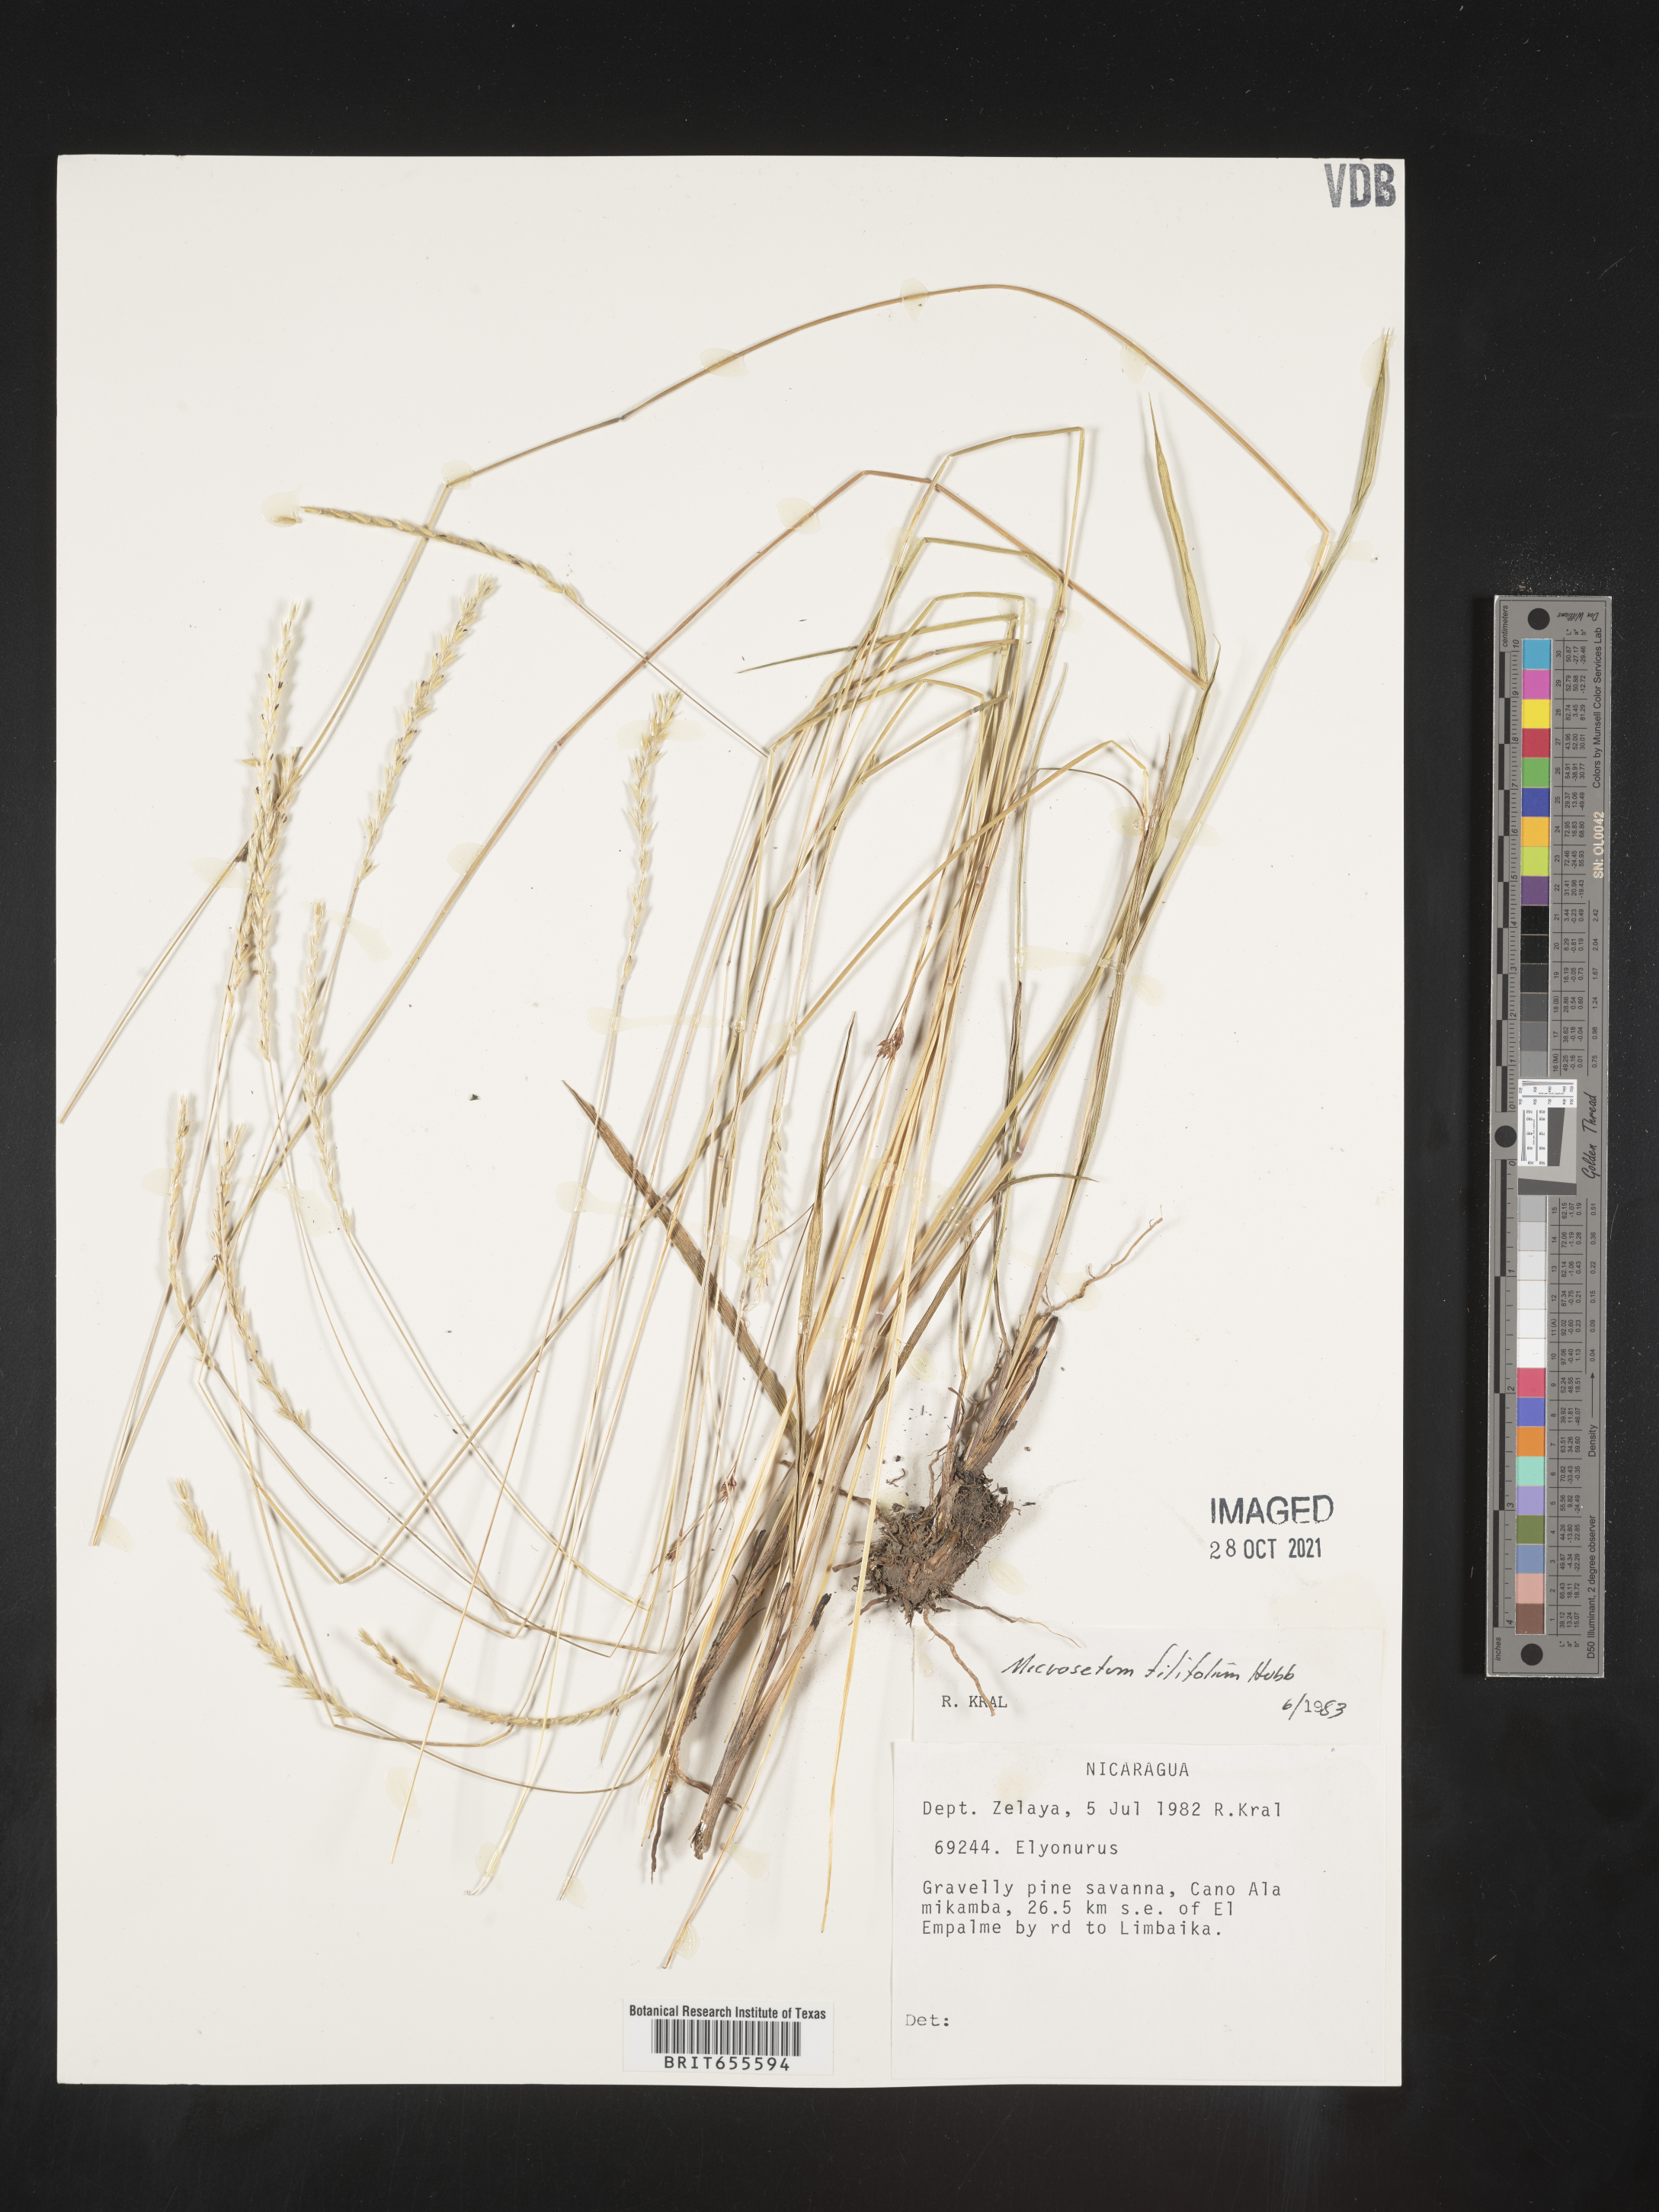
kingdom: Plantae
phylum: Tracheophyta
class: Liliopsida
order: Poales
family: Poaceae
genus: Mesosetum
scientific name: Mesosetum
